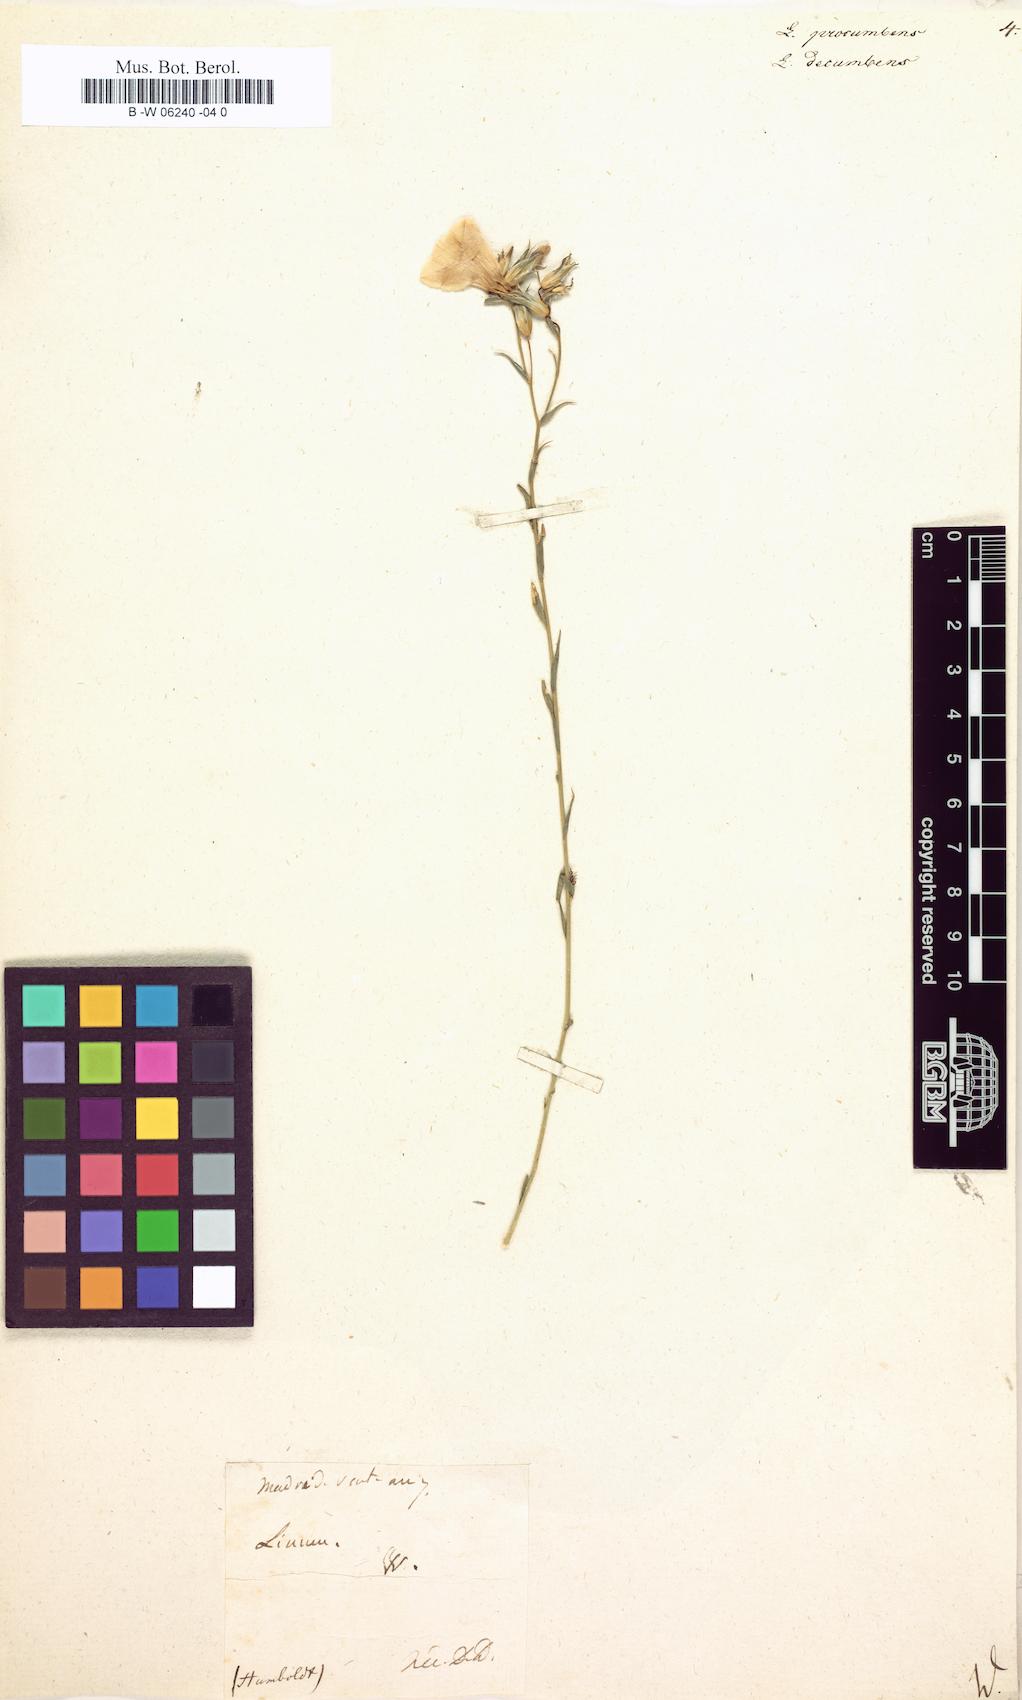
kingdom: Plantae
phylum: Tracheophyta
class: Magnoliopsida
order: Malpighiales
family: Linaceae
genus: Linum
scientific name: Linum procumbens
